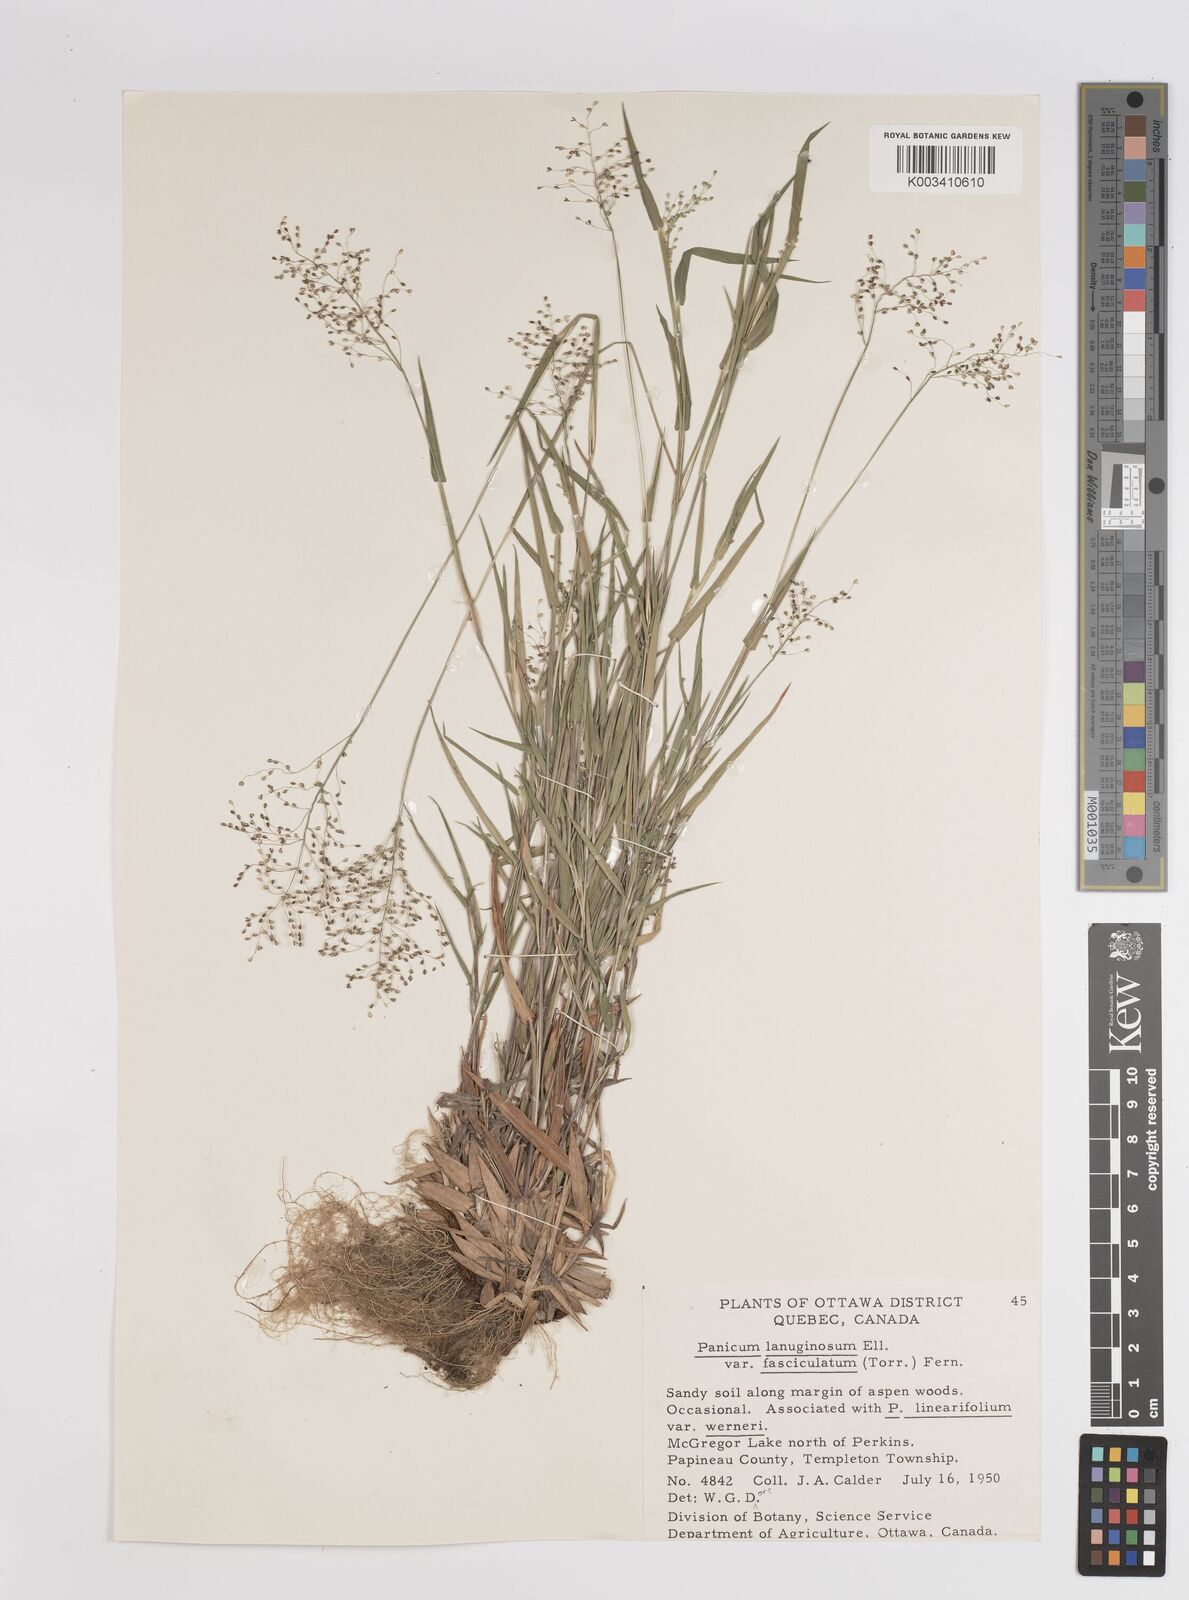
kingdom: Plantae
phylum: Tracheophyta
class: Liliopsida
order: Poales
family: Poaceae
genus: Dichanthelium
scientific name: Dichanthelium lanuginosum
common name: Woolly panicgrass
